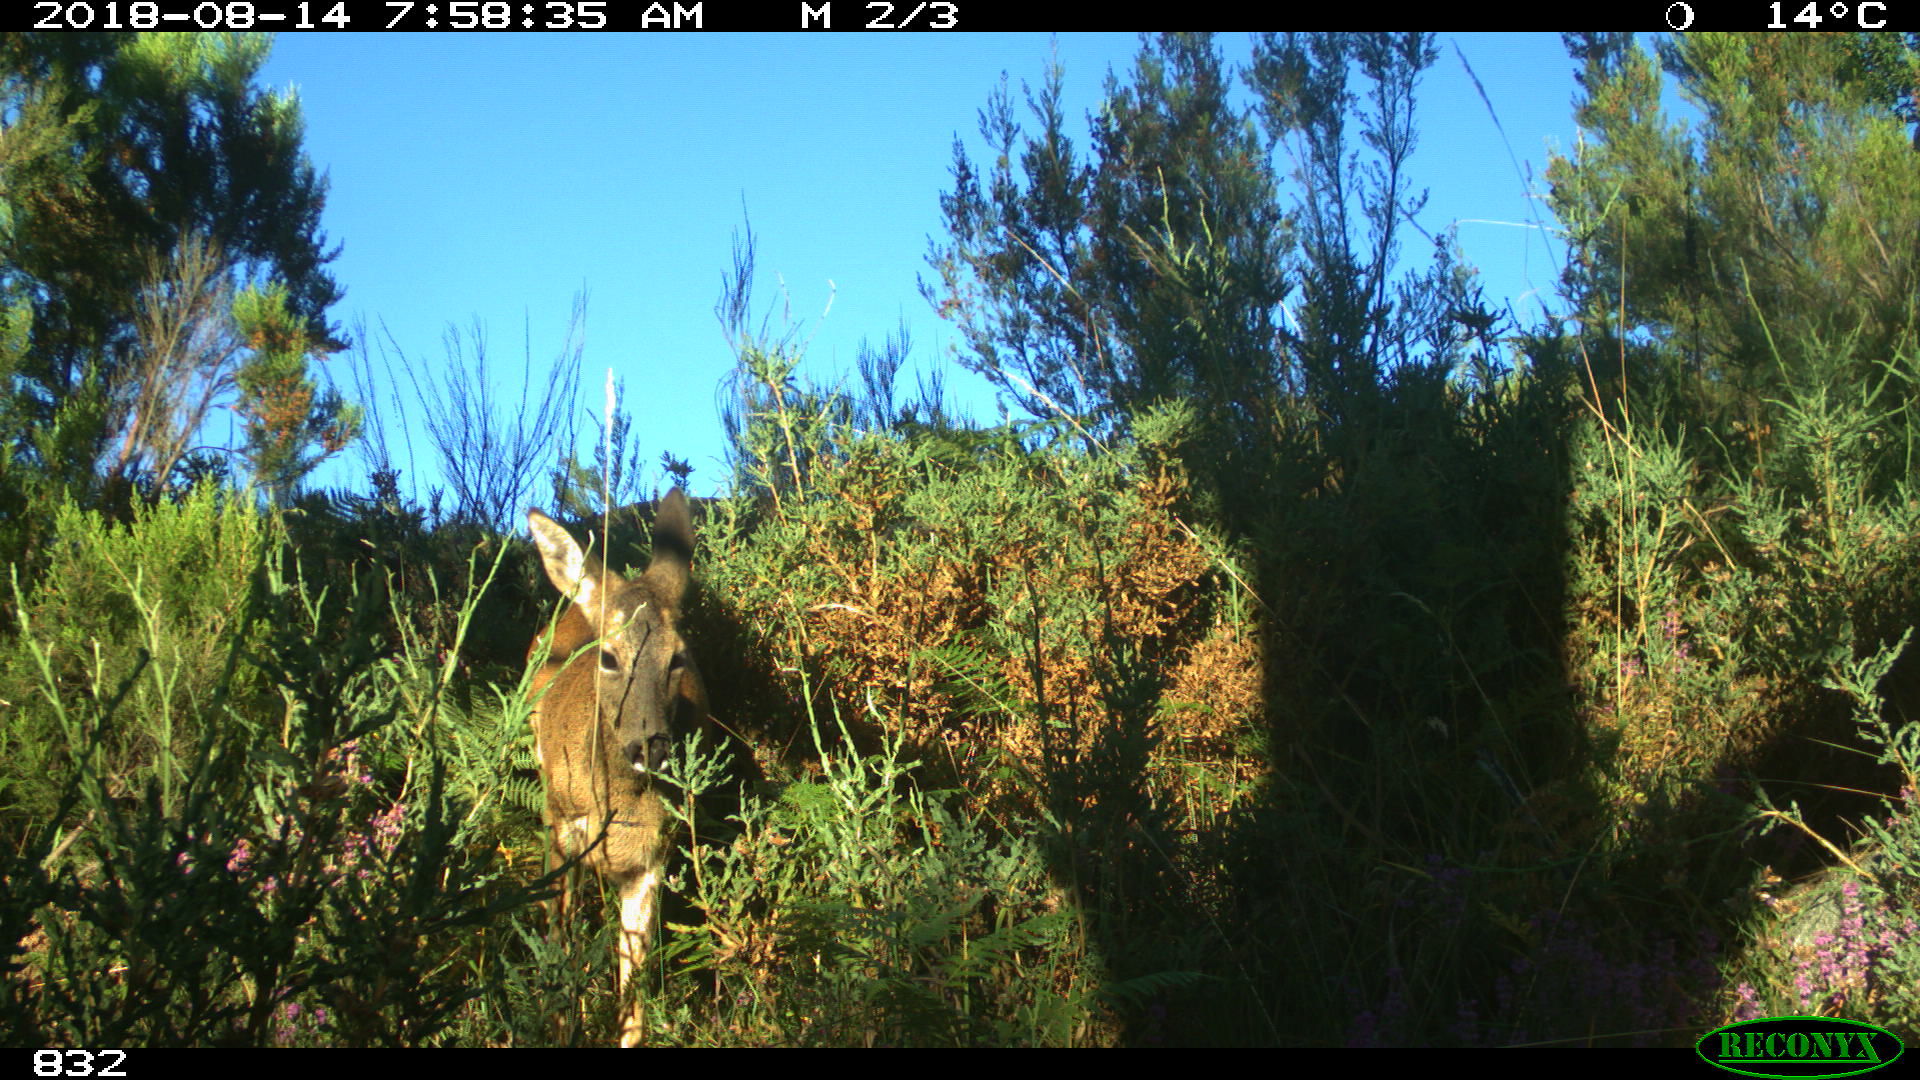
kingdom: Animalia
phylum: Chordata
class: Mammalia
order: Artiodactyla
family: Cervidae
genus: Capreolus
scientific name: Capreolus capreolus
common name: Western roe deer
